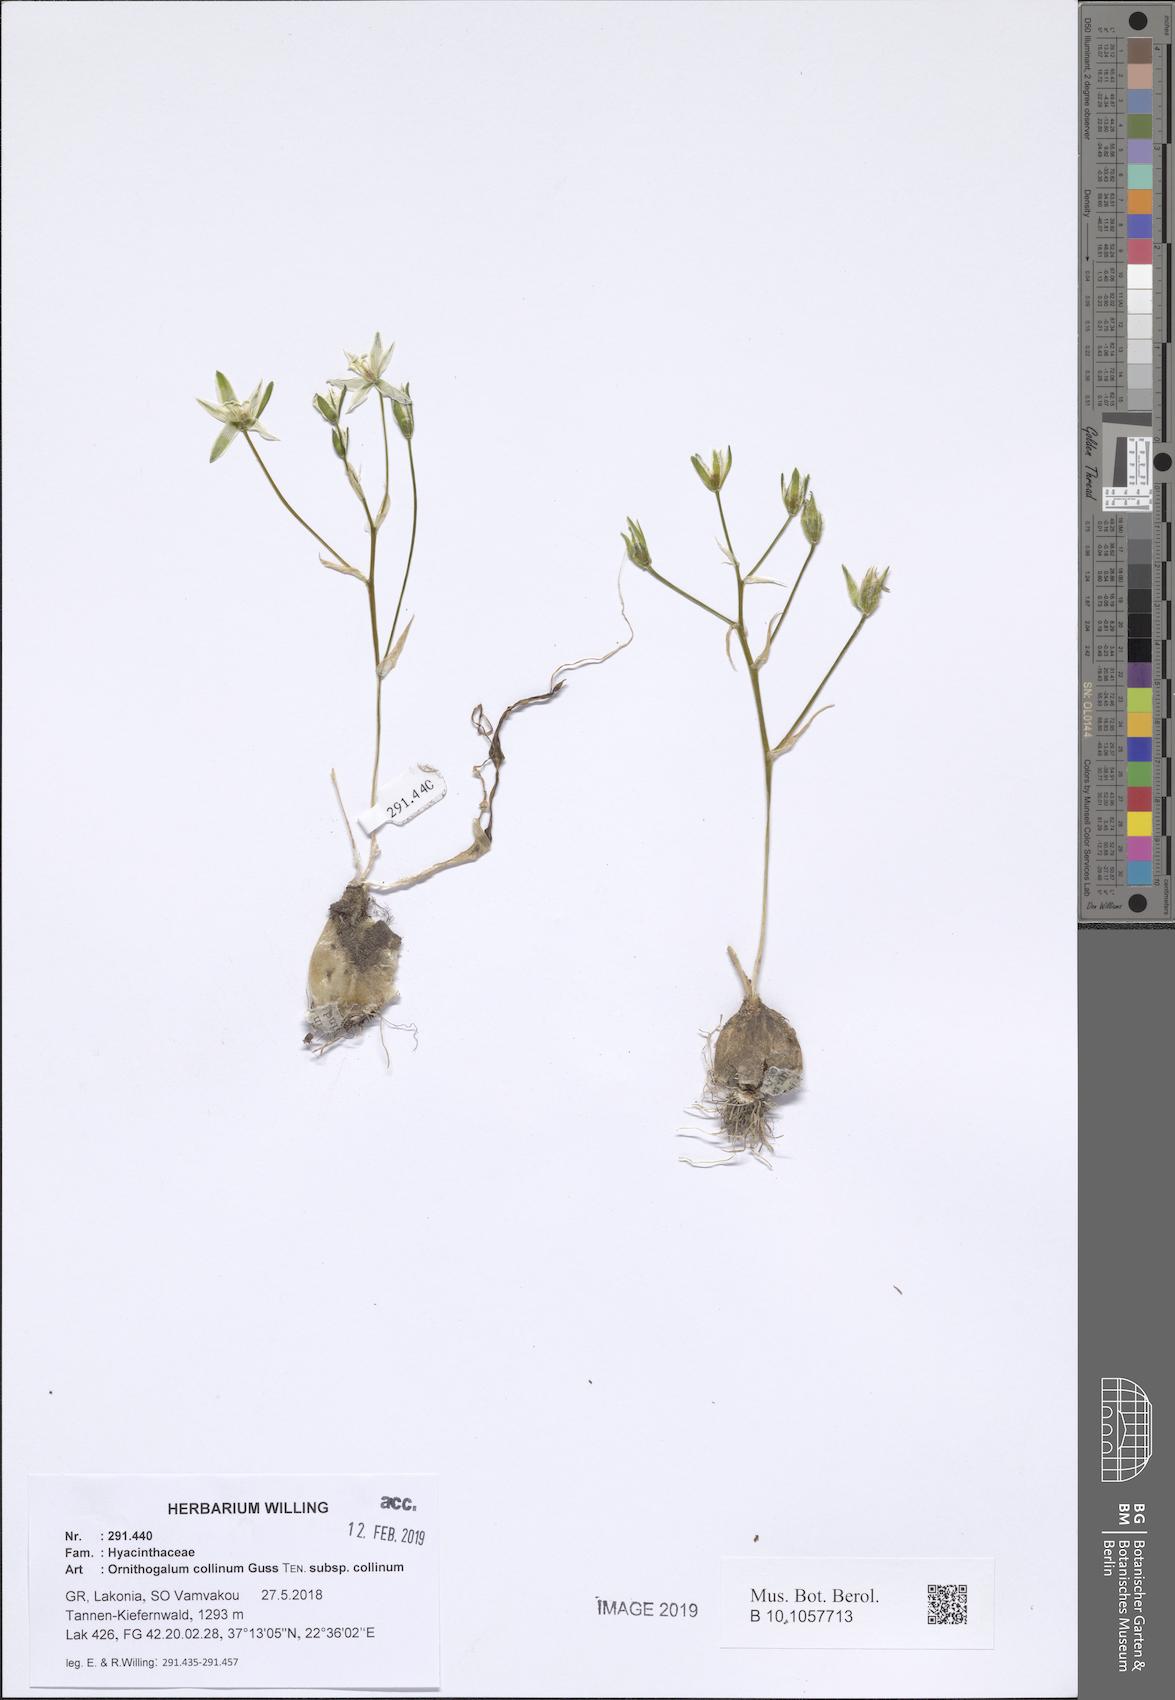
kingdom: Plantae
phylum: Tracheophyta
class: Liliopsida
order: Asparagales
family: Asparagaceae
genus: Ornithogalum
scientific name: Ornithogalum collinum
